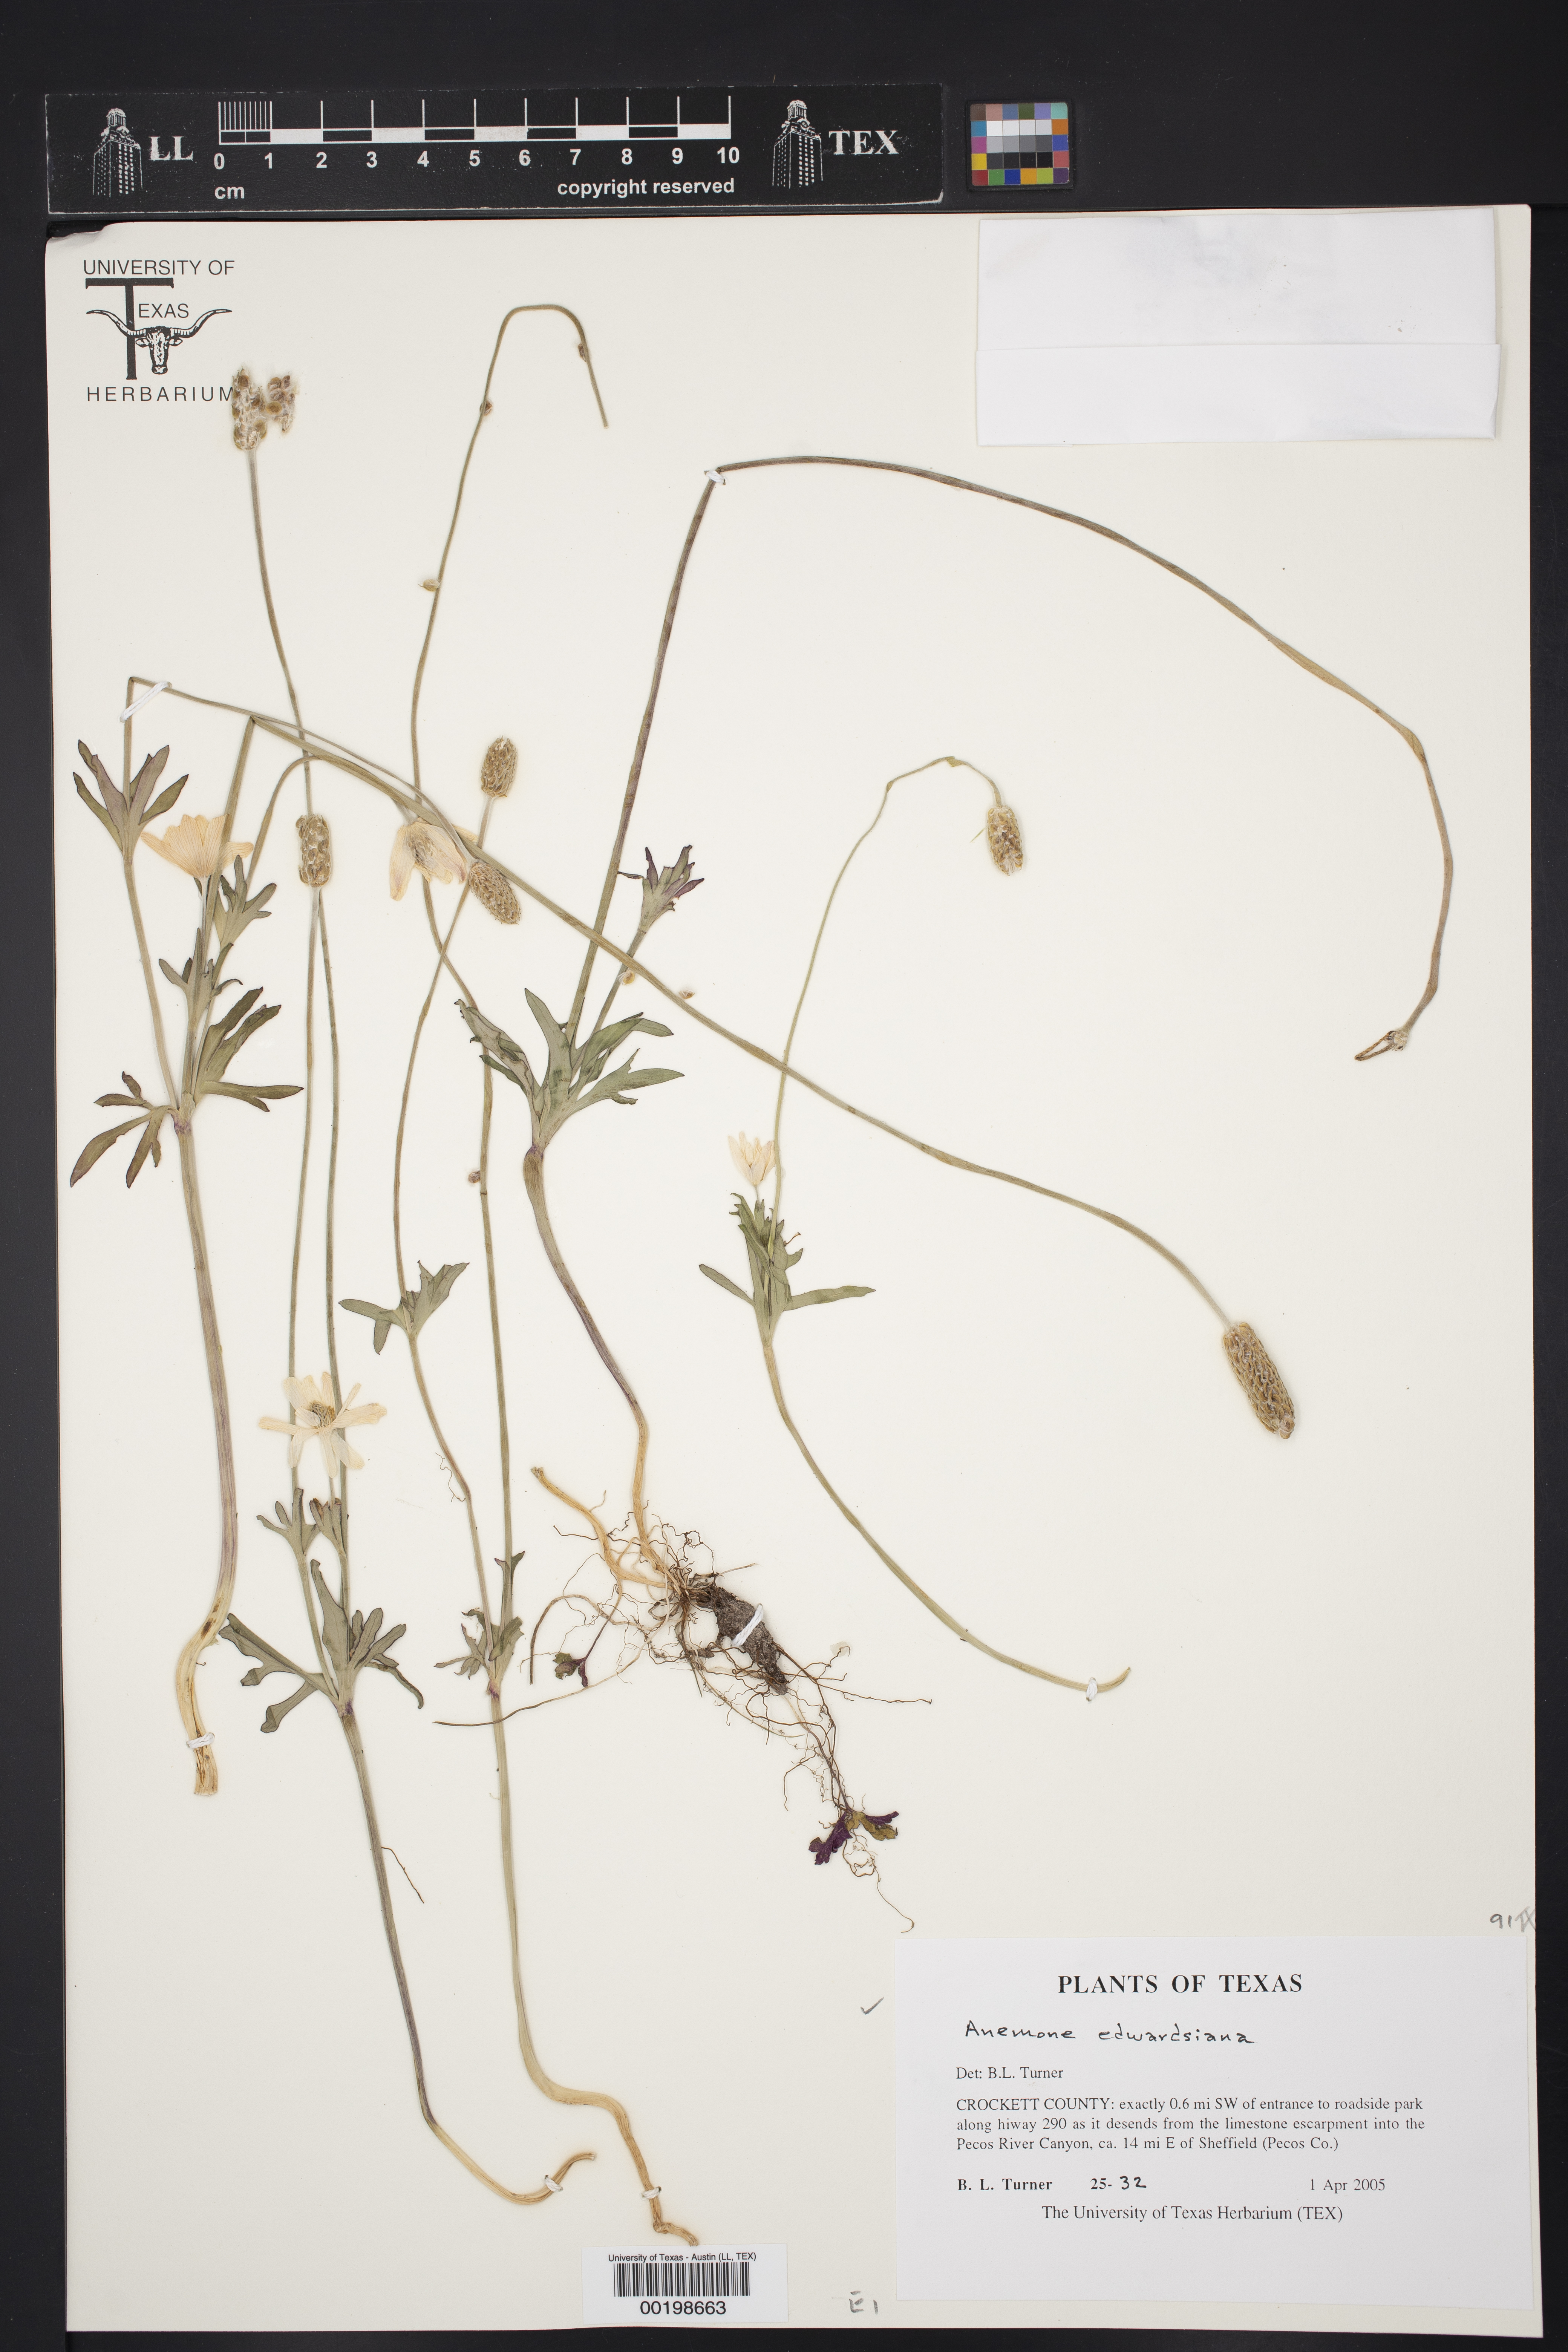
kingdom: Plantae
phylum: Tracheophyta
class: Magnoliopsida
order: Ranunculales
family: Ranunculaceae
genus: Anemone
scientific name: Anemone edwardsiana
